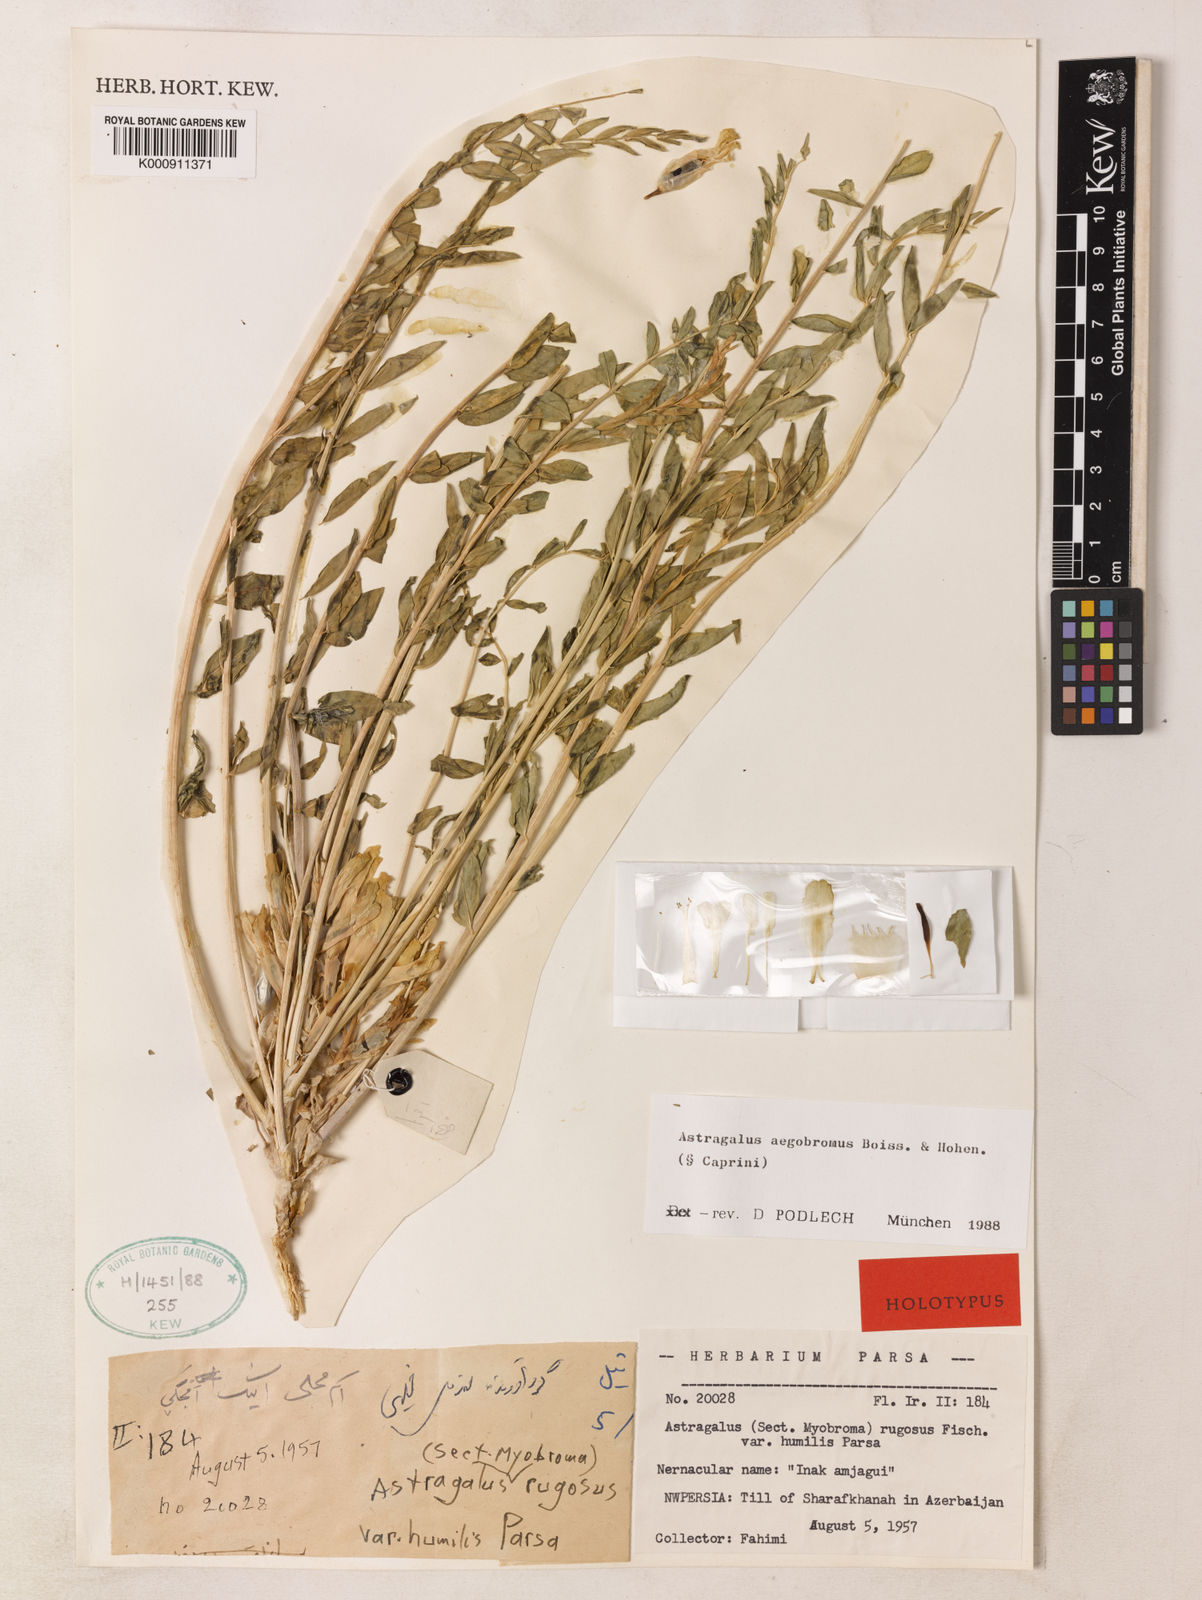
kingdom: Plantae
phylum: Tracheophyta
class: Magnoliopsida
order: Fabales
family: Fabaceae
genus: Astragalus
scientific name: Astragalus aegobromus
